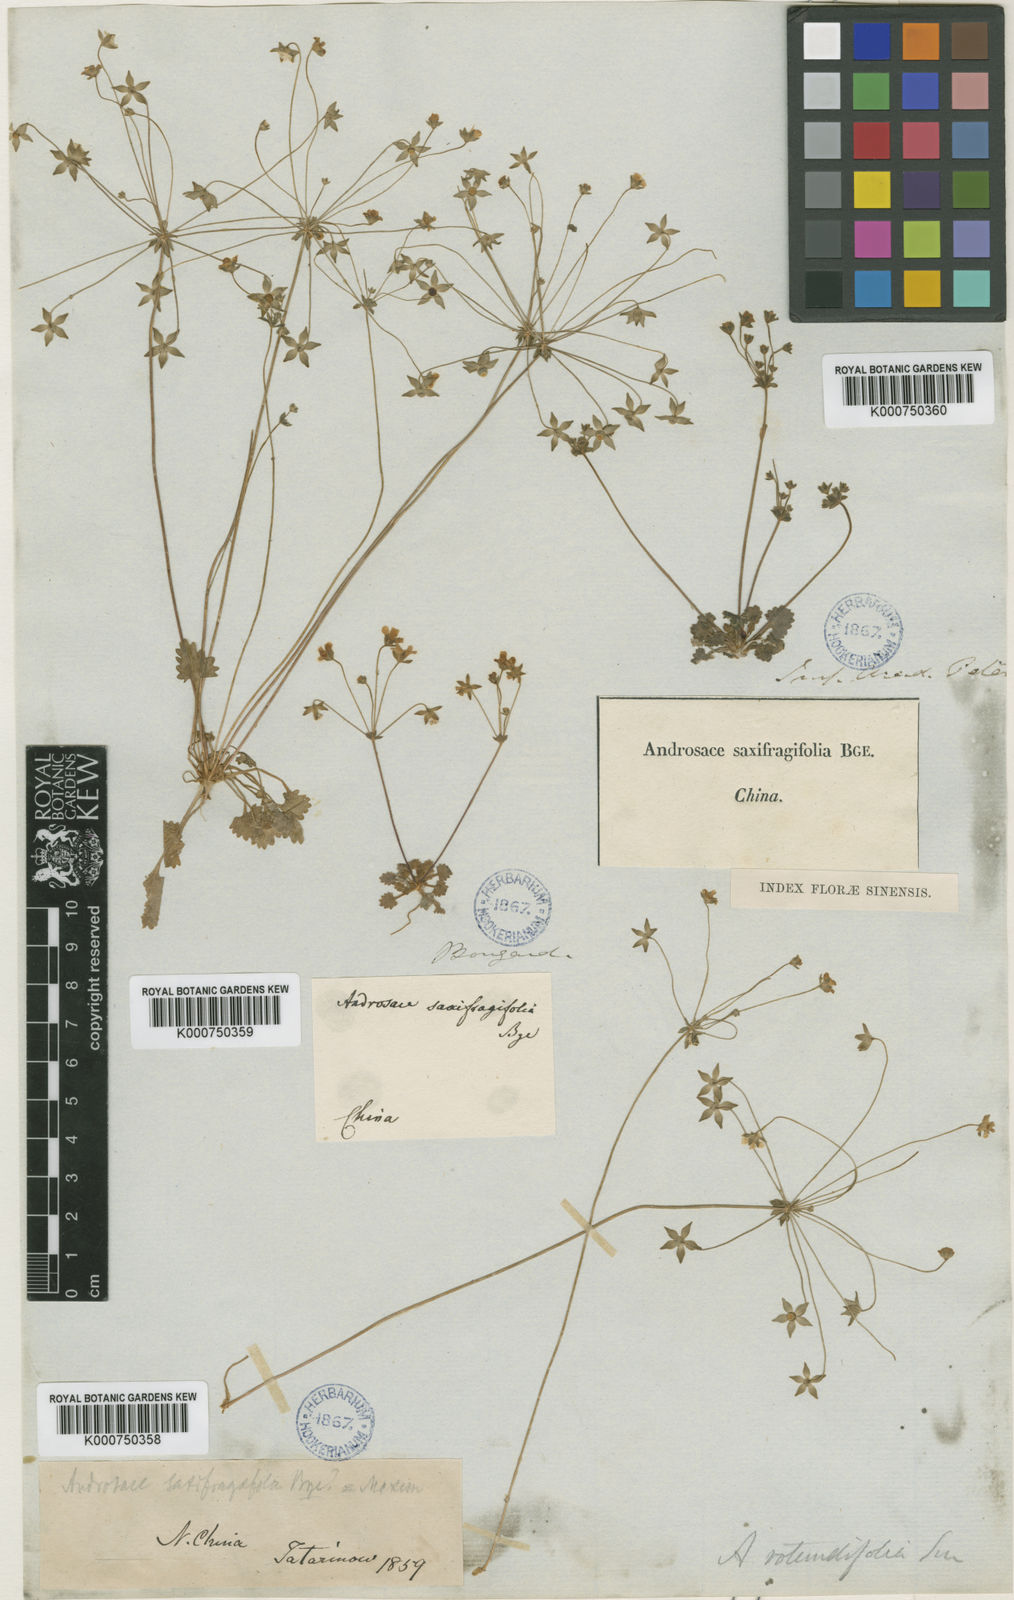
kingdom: Plantae
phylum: Tracheophyta
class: Magnoliopsida
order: Ericales
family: Primulaceae
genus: Androsace
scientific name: Androsace umbellata
